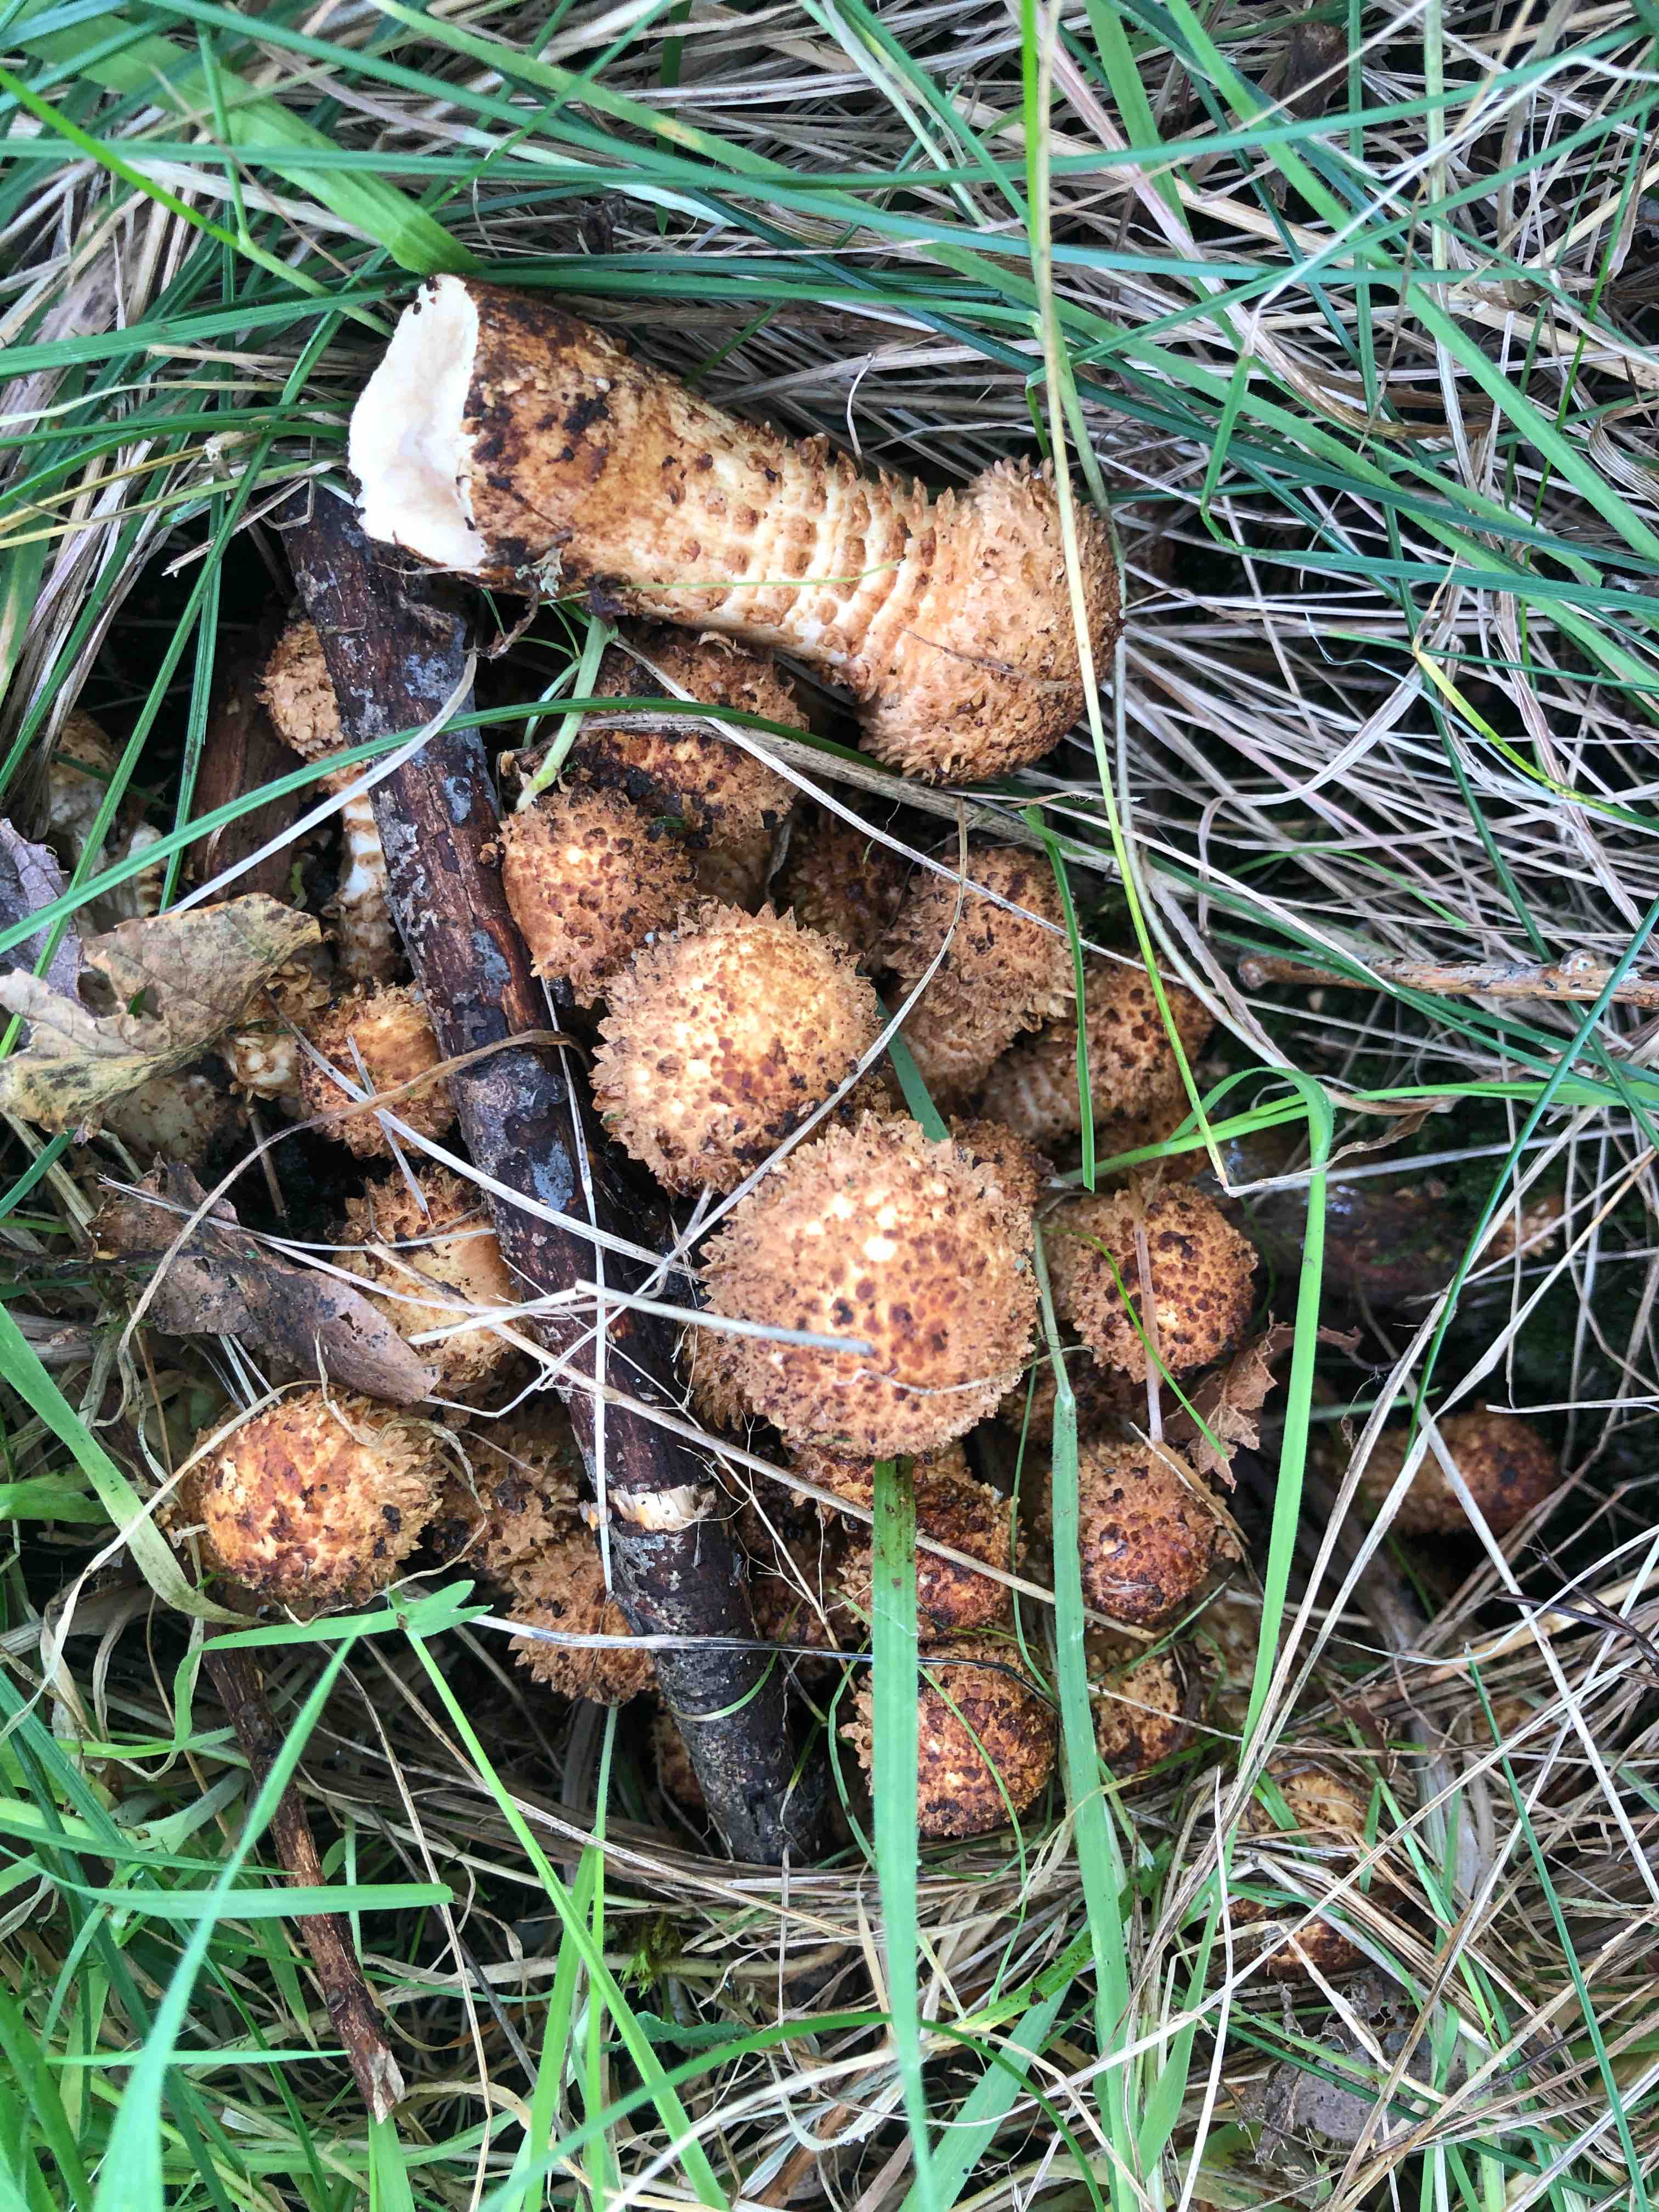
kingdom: Fungi
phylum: Basidiomycota
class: Agaricomycetes
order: Agaricales
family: Strophariaceae
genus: Pholiota
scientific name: Pholiota squarrosa
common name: krumskællet skælhat
